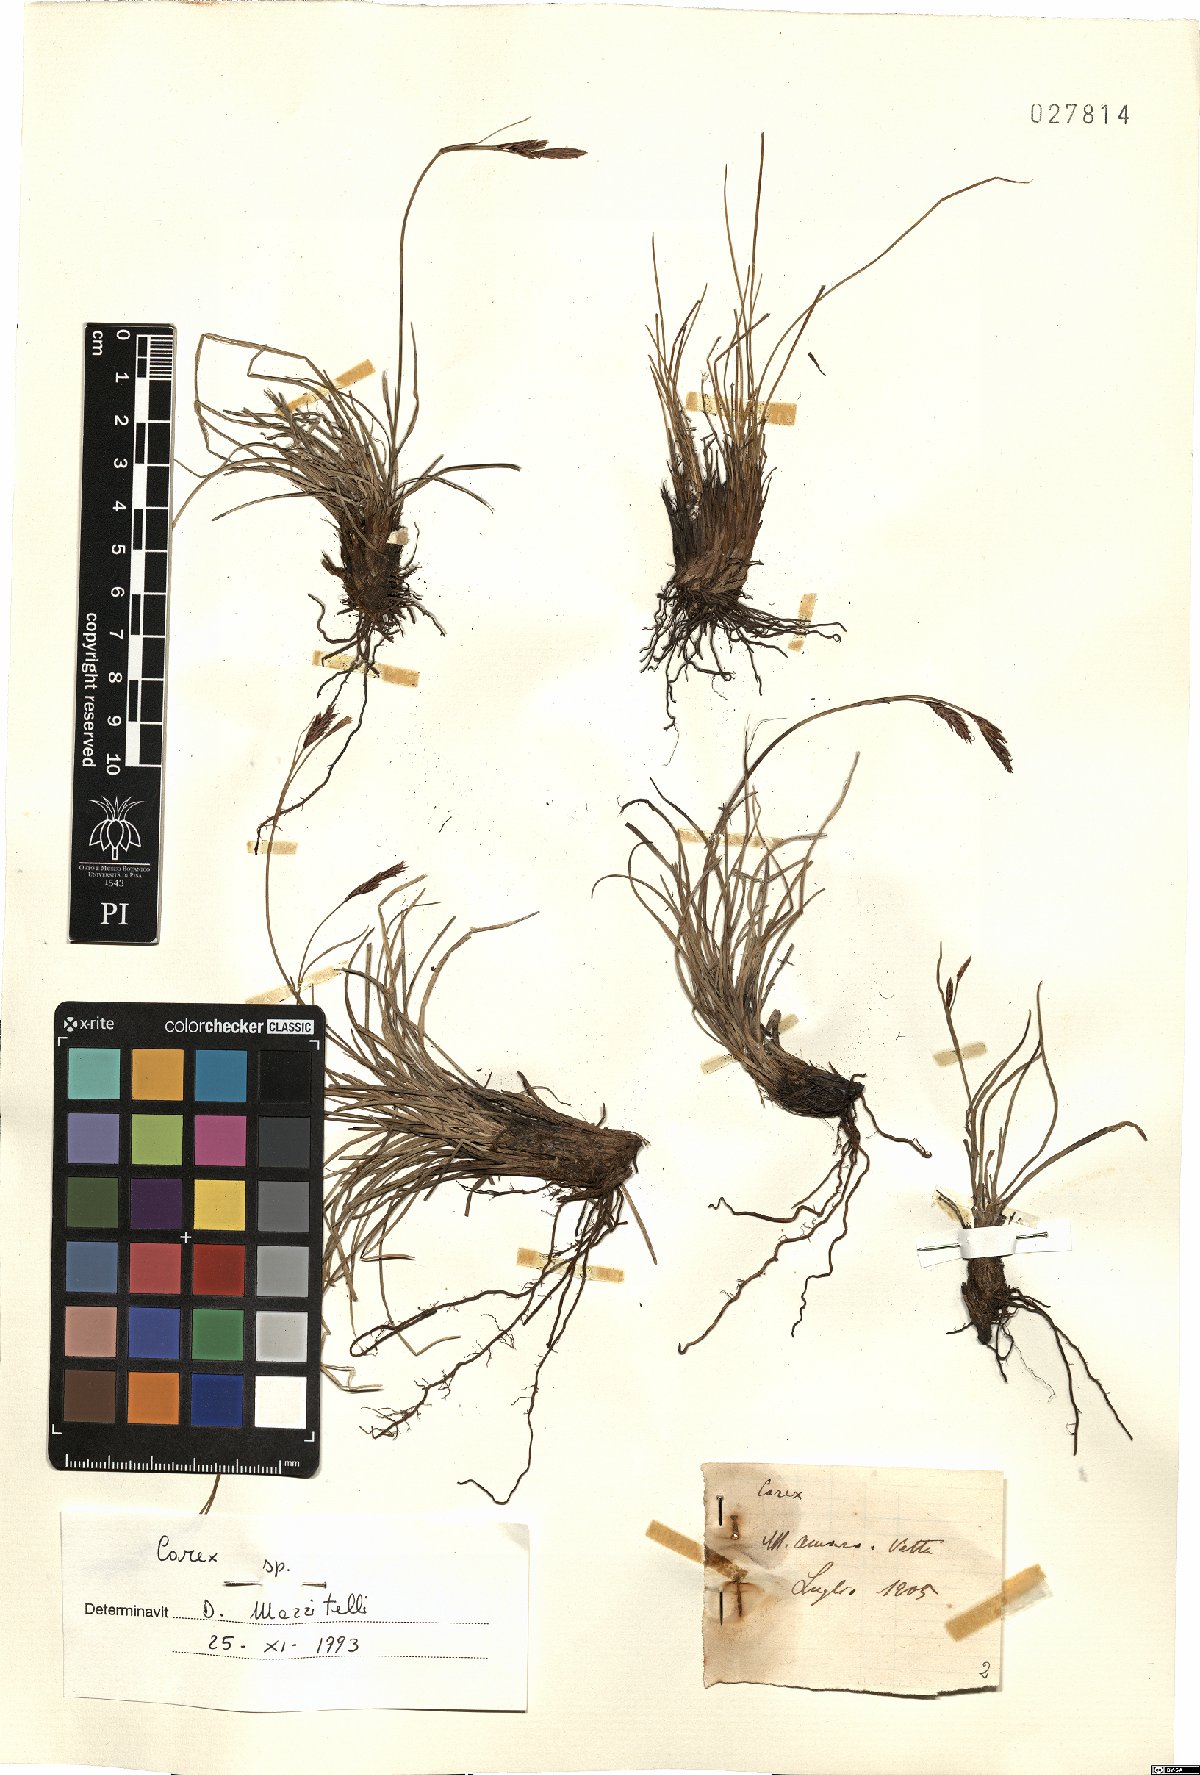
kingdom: Plantae
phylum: Tracheophyta
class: Liliopsida
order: Poales
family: Cyperaceae
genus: Carex
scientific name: Carex
